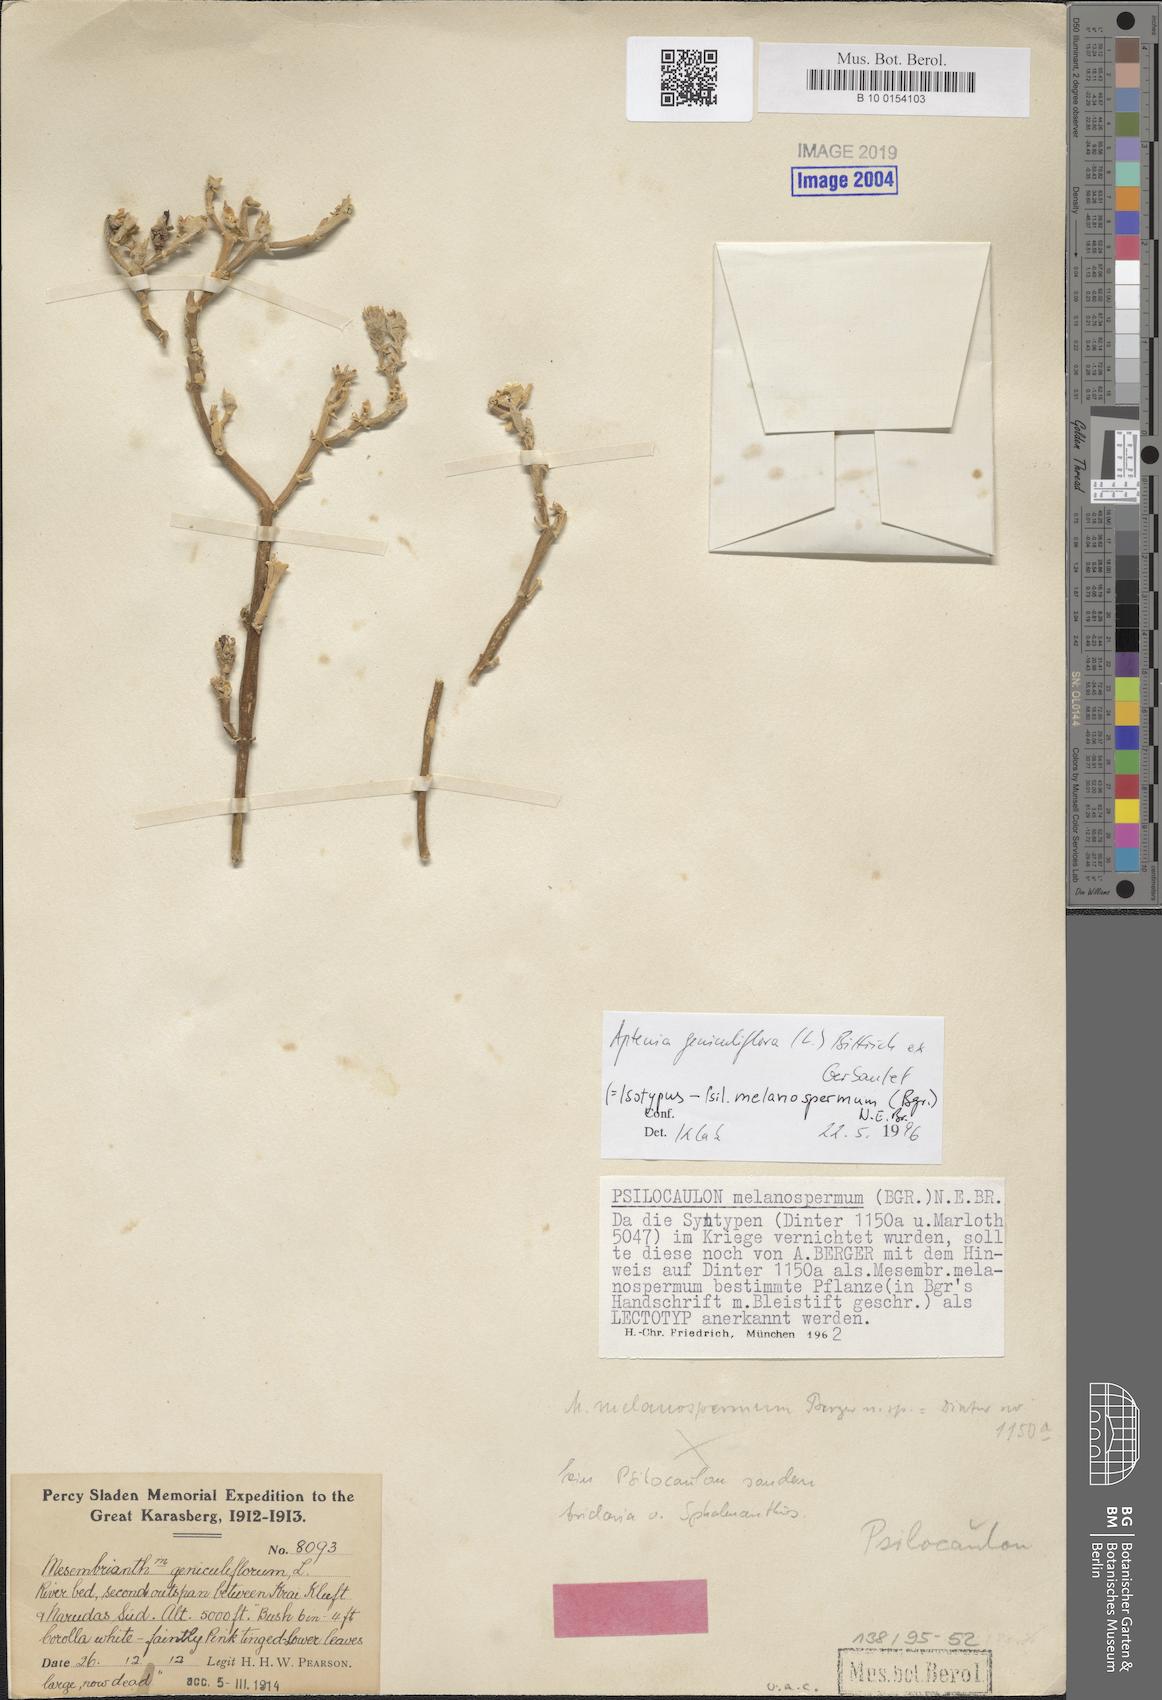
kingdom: Plantae
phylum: Tracheophyta
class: Magnoliopsida
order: Caryophyllales
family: Aizoaceae
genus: Mesembryanthemum
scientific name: Mesembryanthemum geniculiflorum
